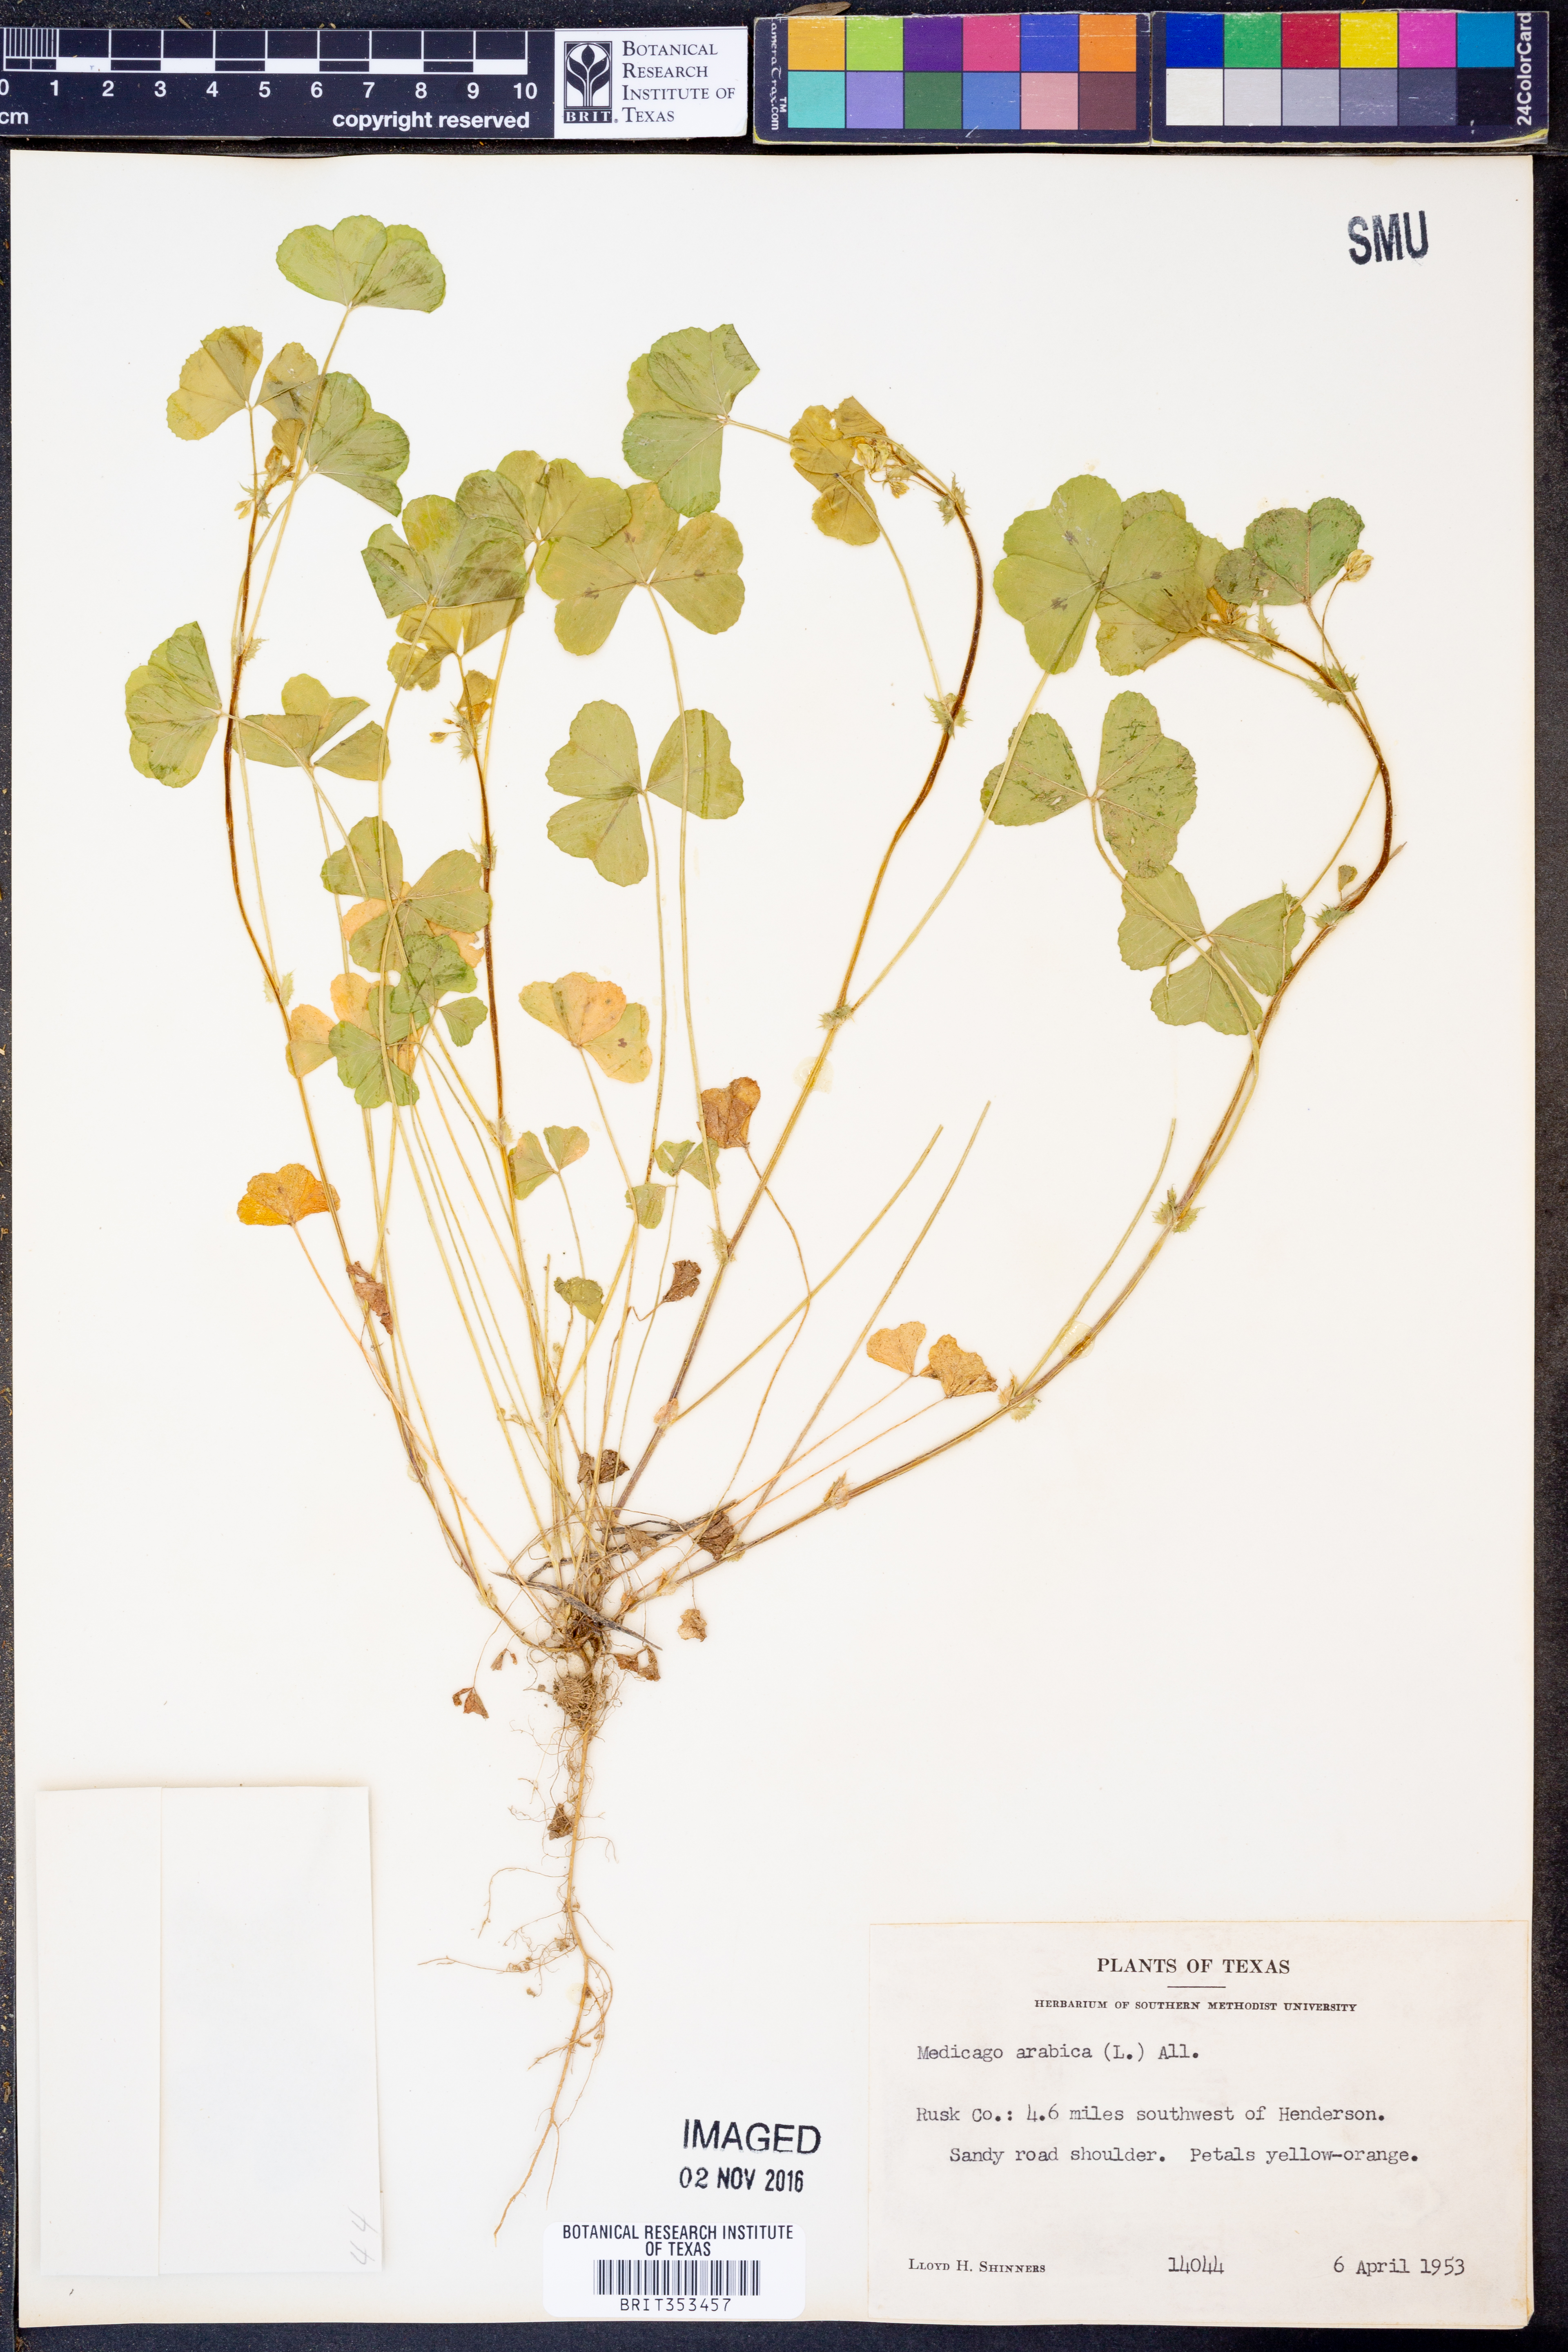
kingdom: Plantae
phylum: Tracheophyta
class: Magnoliopsida
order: Fabales
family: Fabaceae
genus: Medicago
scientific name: Medicago arabica
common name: Spotted medick
